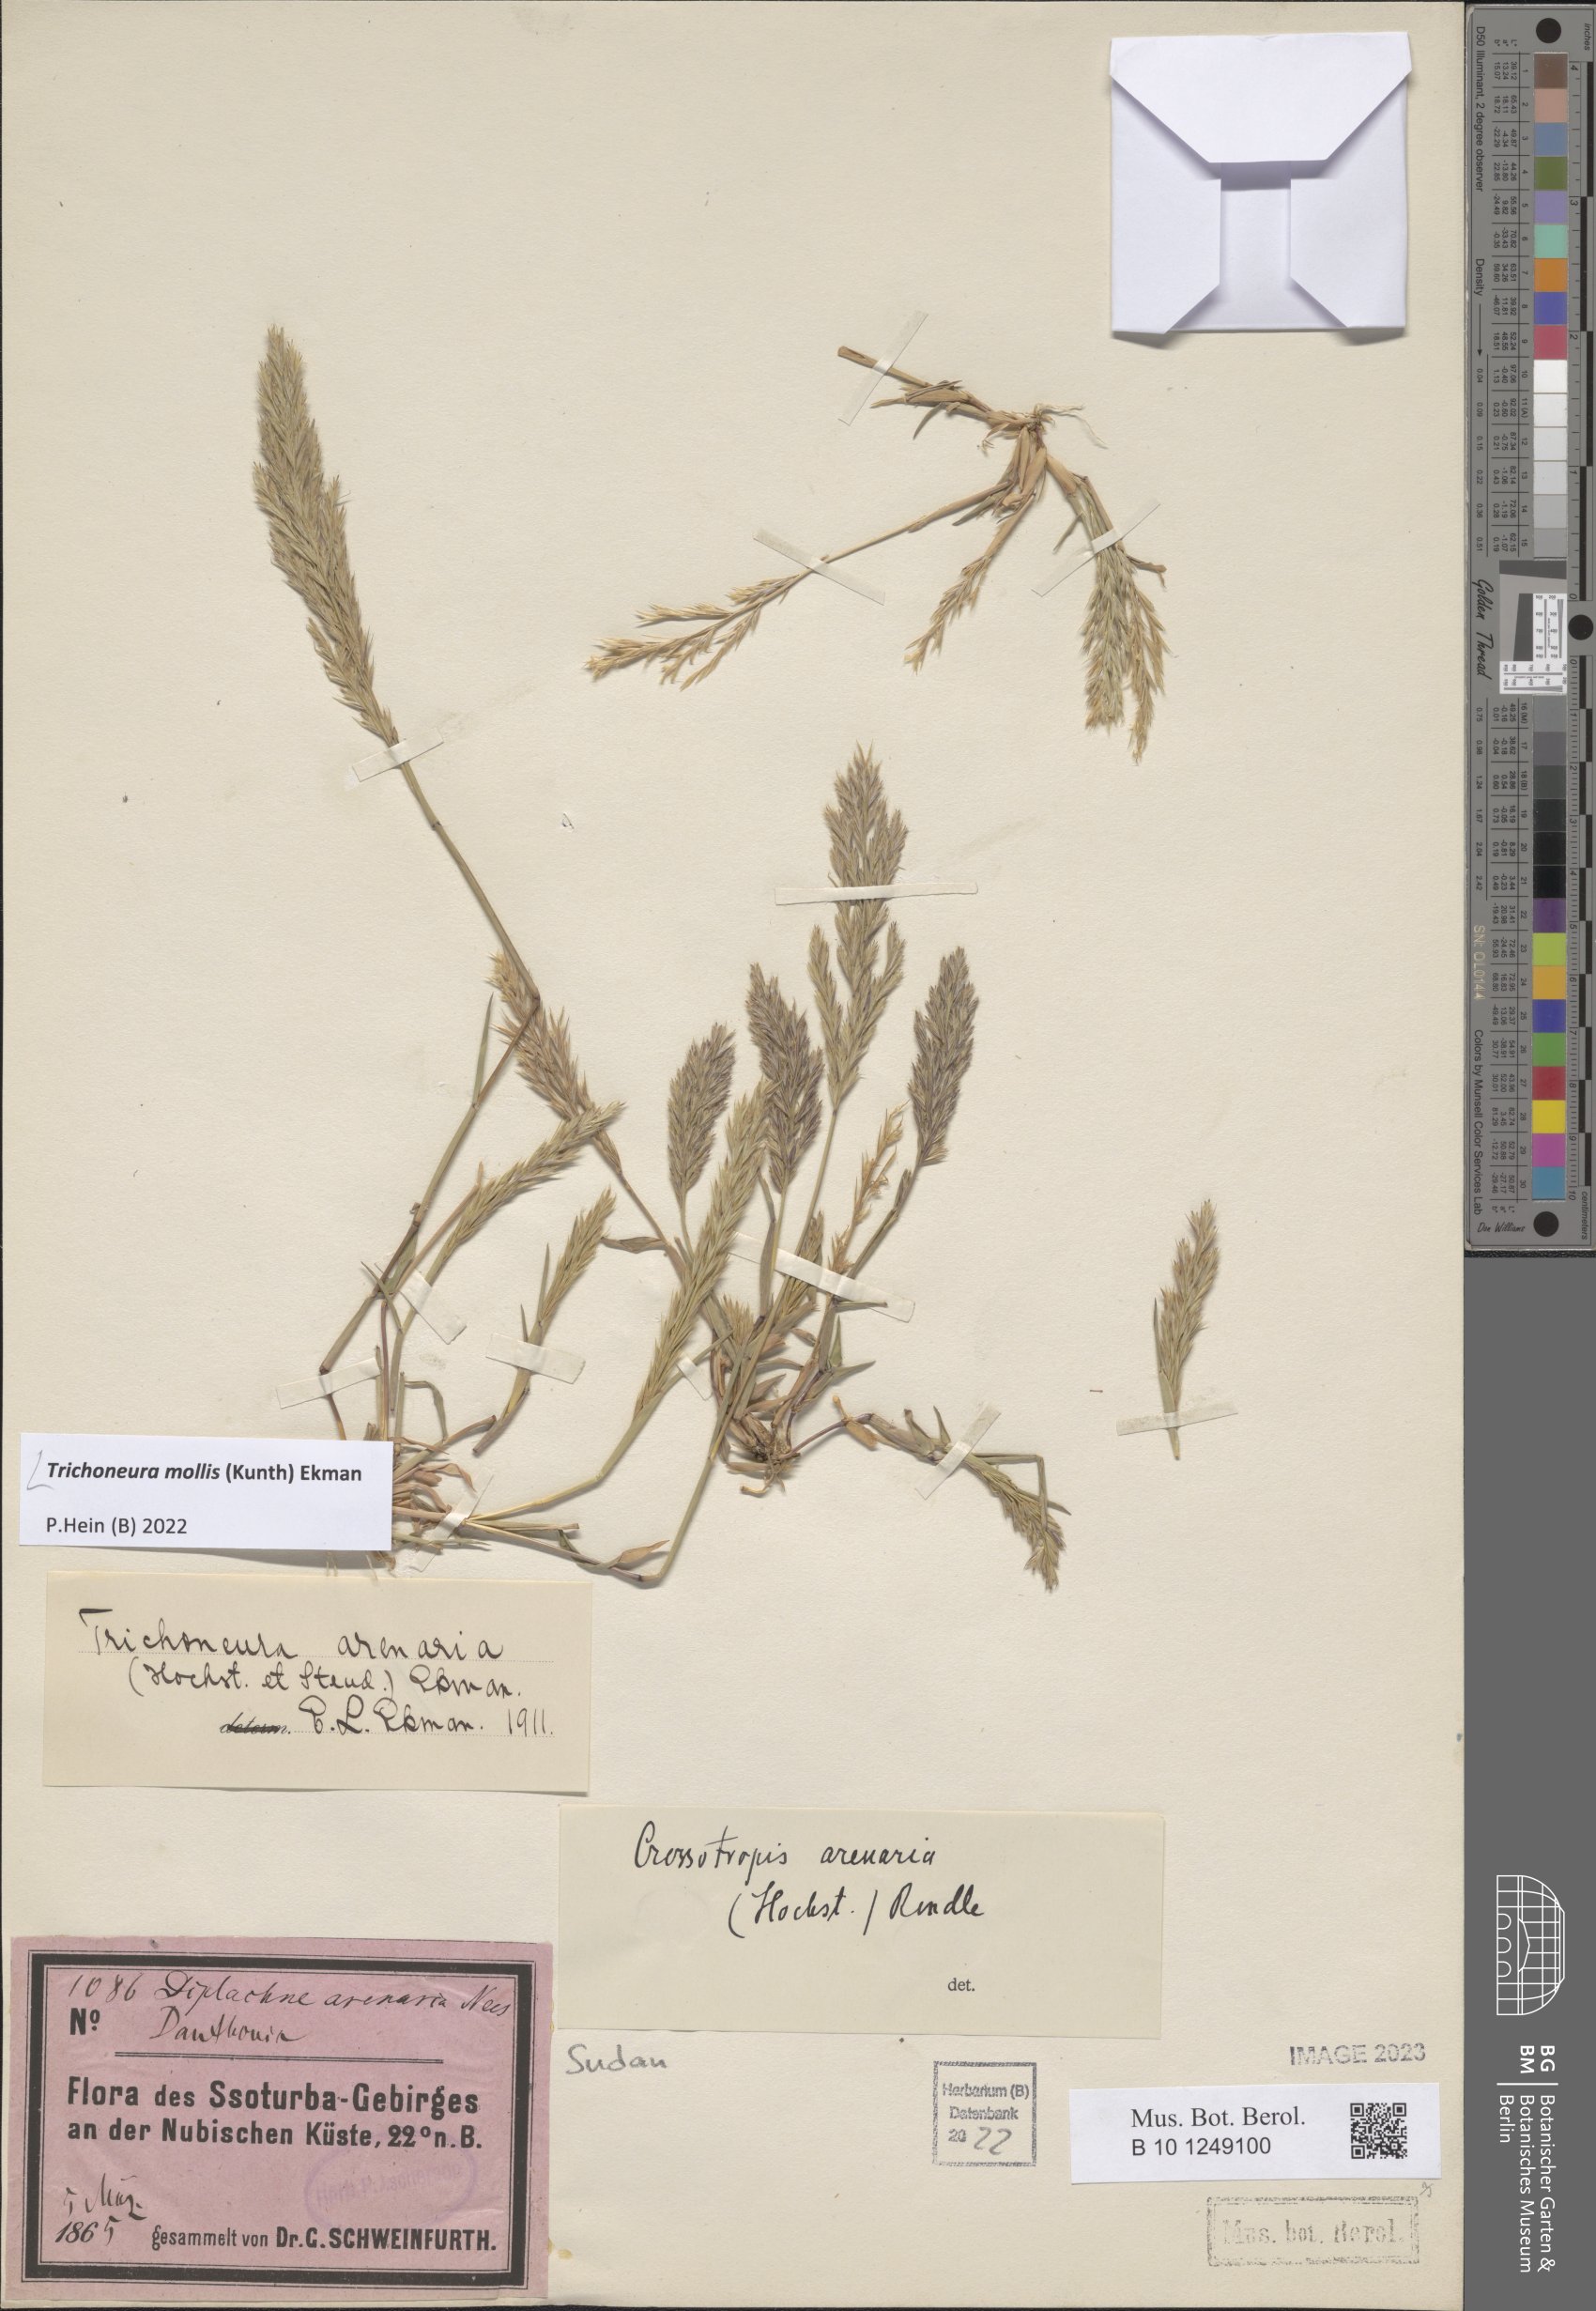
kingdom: Plantae
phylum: Tracheophyta
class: Liliopsida
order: Poales
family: Poaceae
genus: Trichoneura
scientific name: Trichoneura mollis
